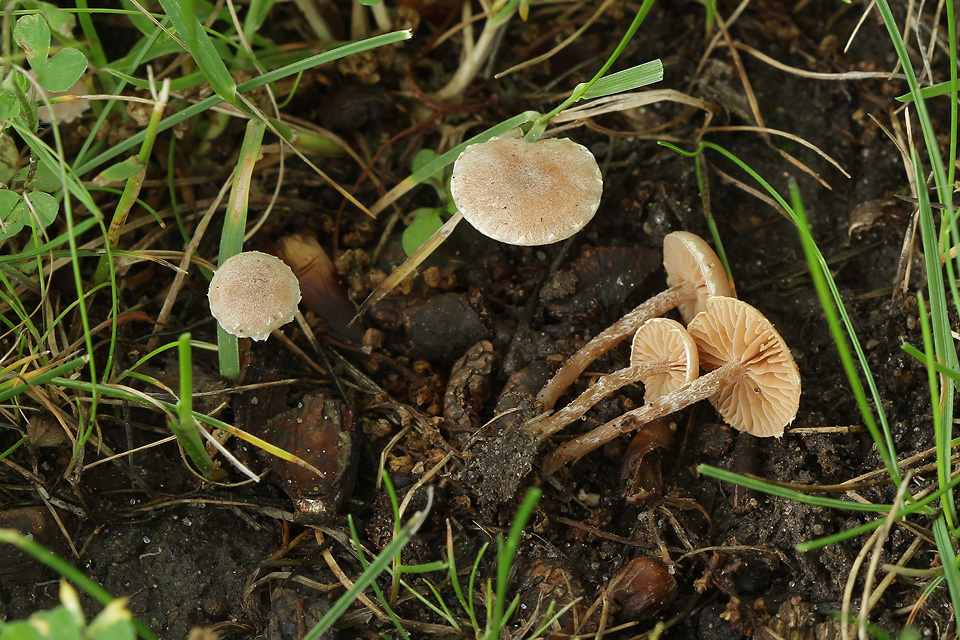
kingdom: Fungi
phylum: Basidiomycota
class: Agaricomycetes
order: Agaricales
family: Tubariaceae
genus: Tubaria
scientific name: Tubaria conspersa
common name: bleg fnughat
